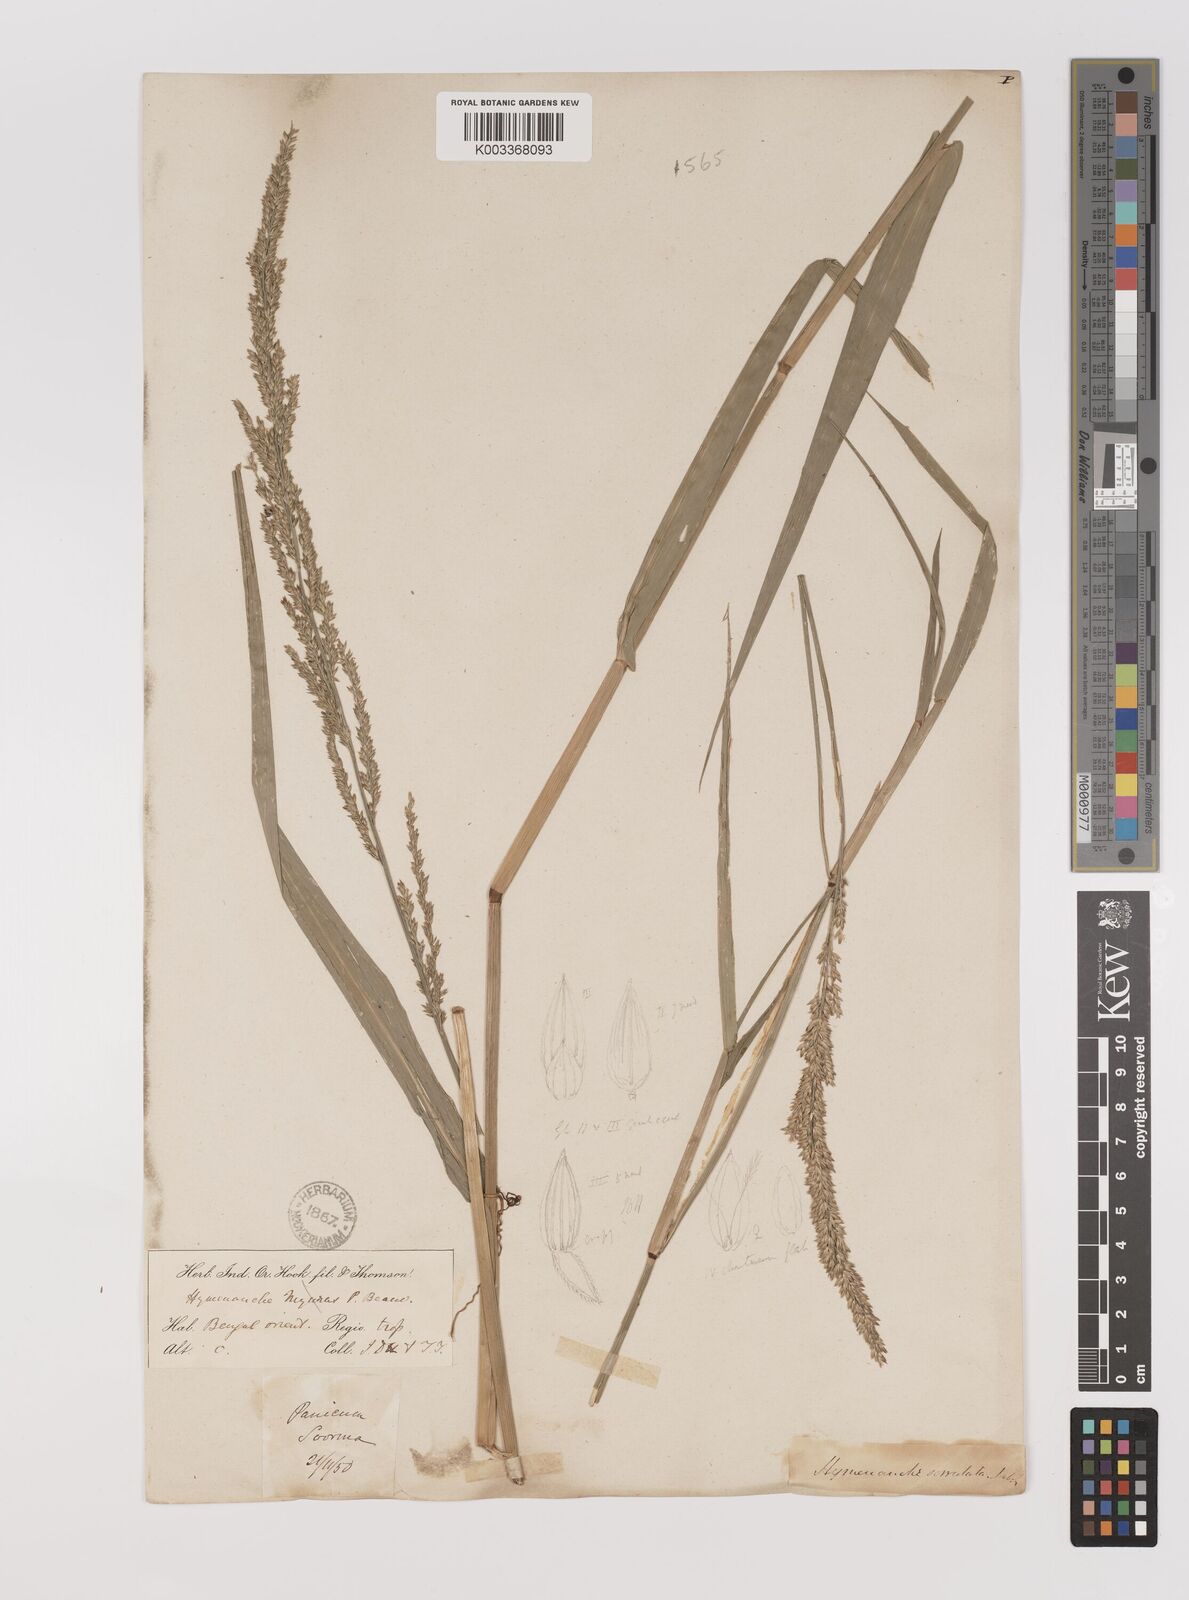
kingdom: Plantae
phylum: Tracheophyta
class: Liliopsida
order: Poales
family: Poaceae
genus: Hymenachne
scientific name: Hymenachne aurita
